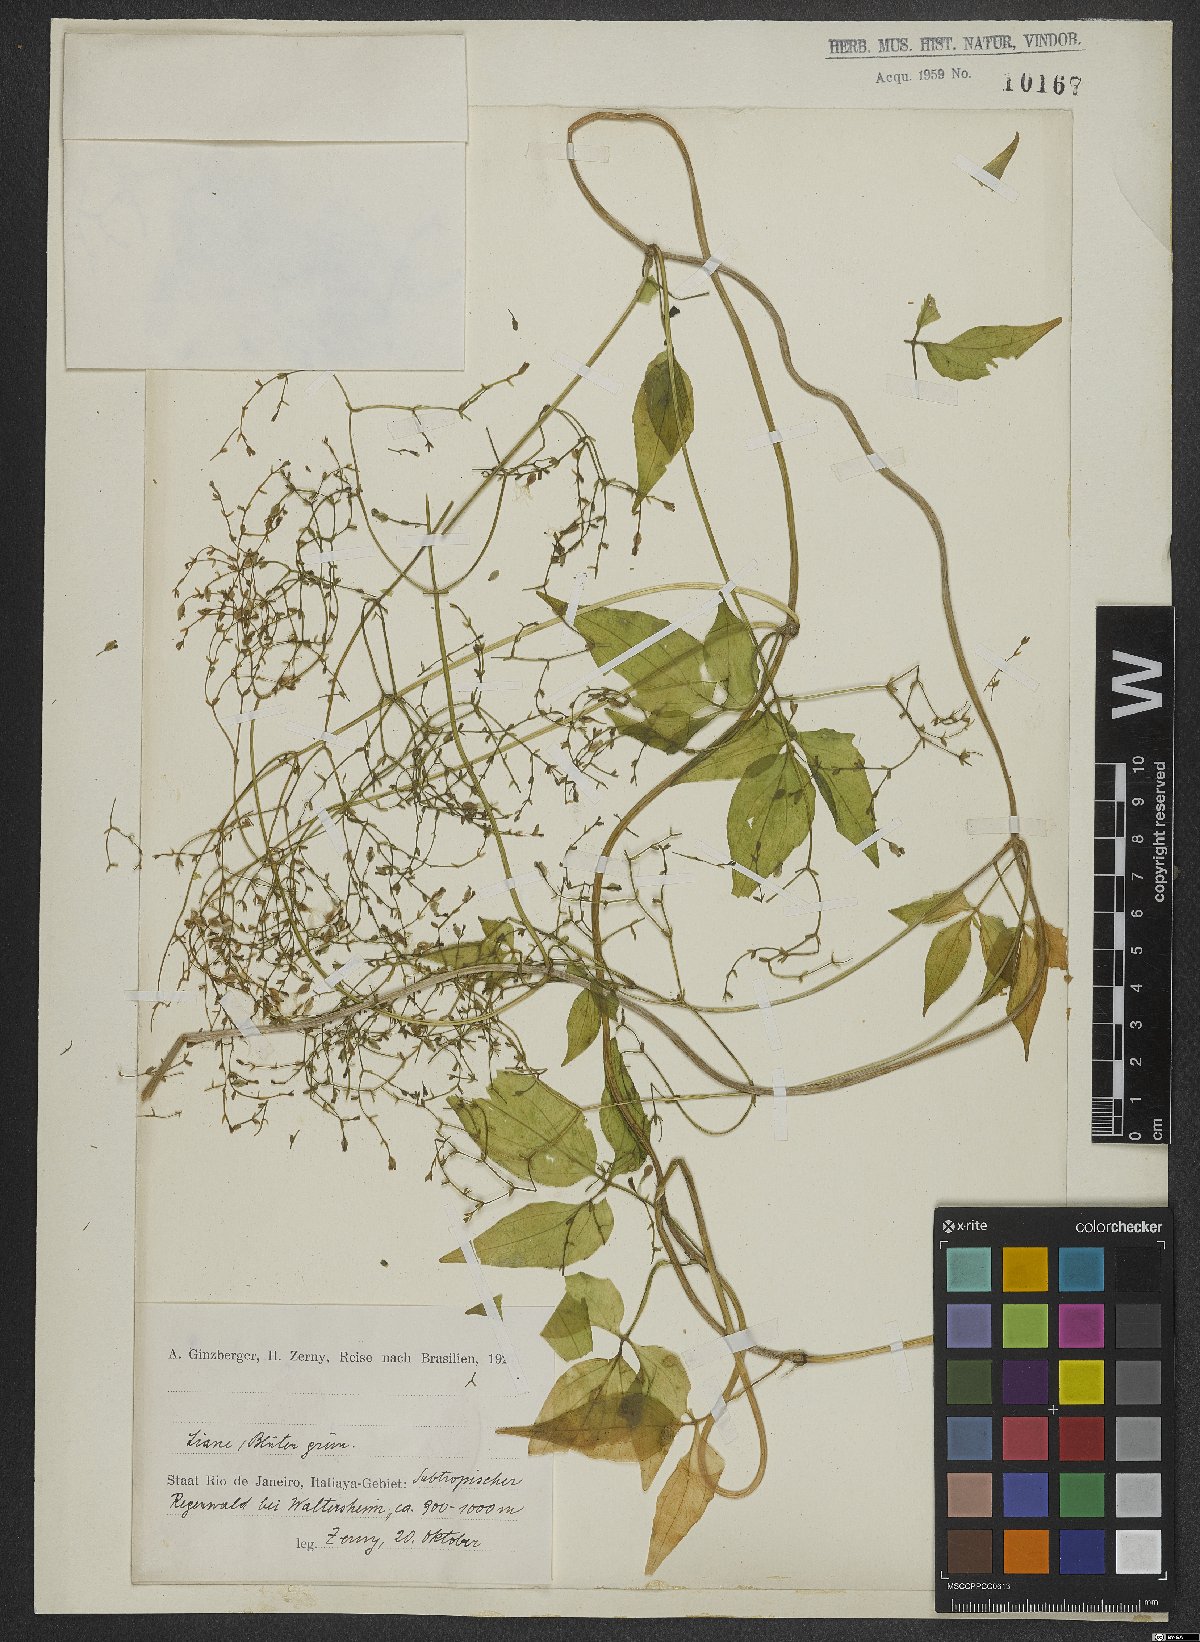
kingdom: Plantae
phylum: Tracheophyta
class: Magnoliopsida
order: Dipsacales
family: Valerianaceae
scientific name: Valerianaceae
